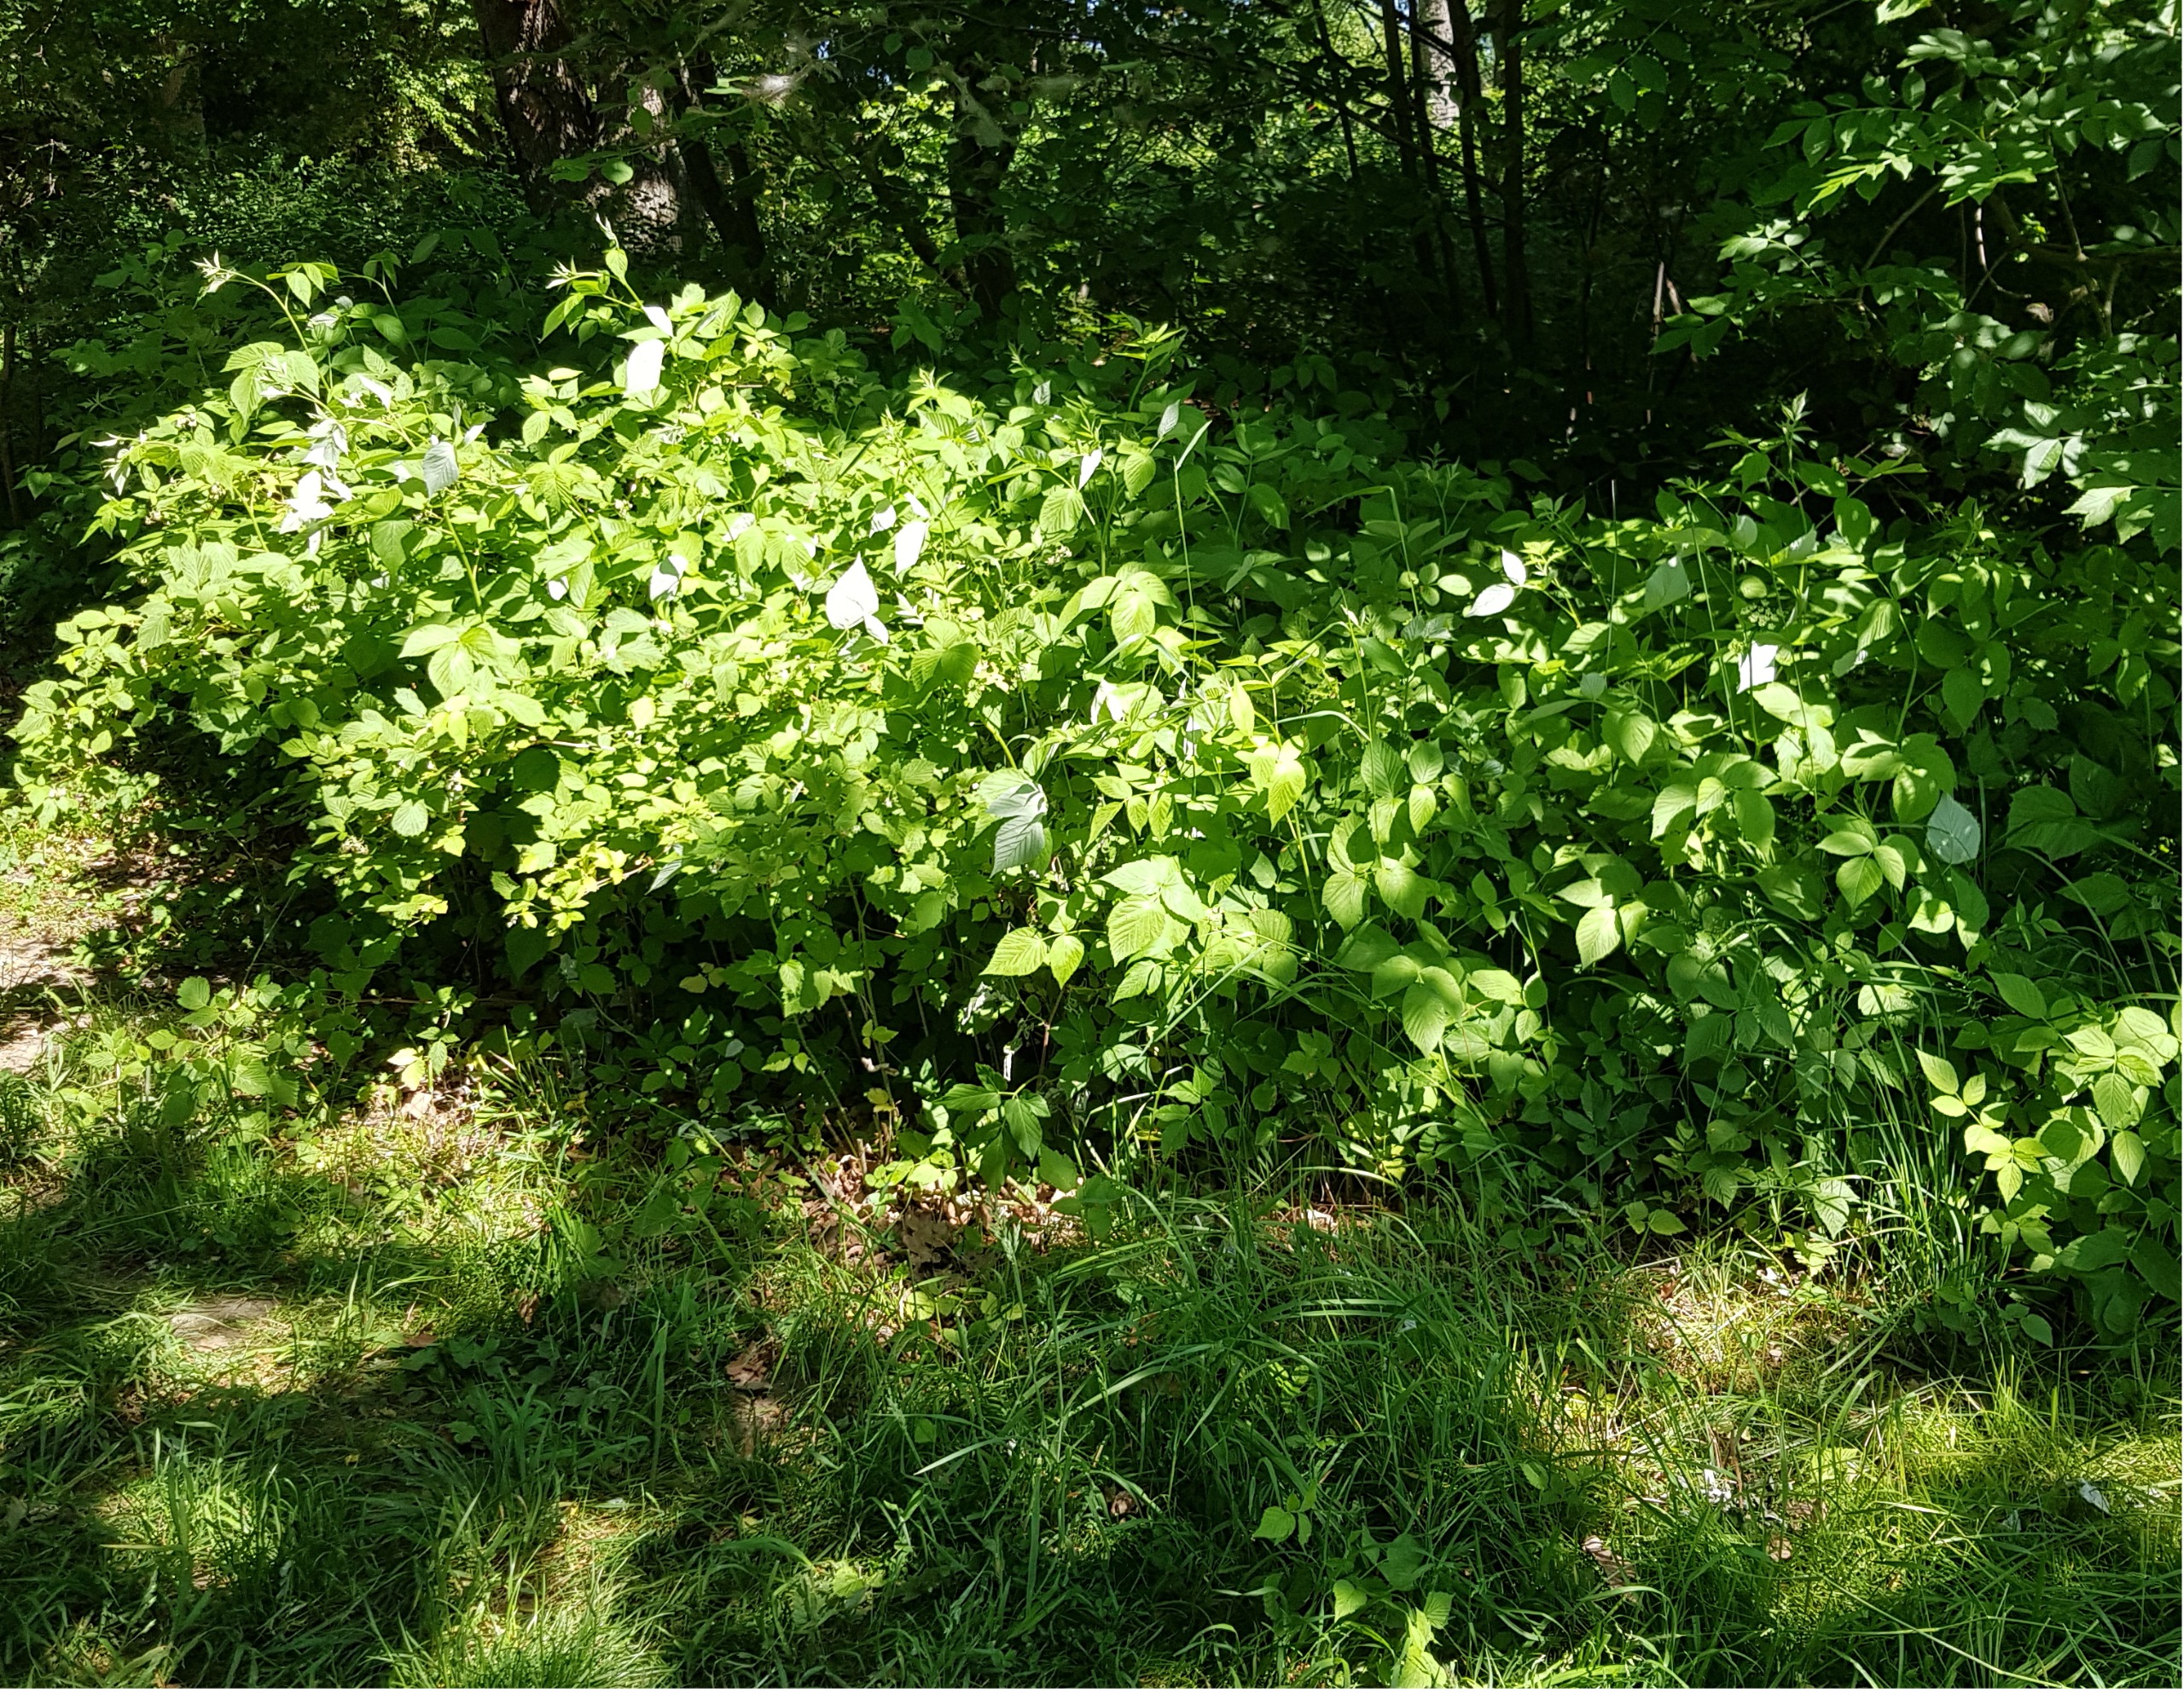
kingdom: Plantae
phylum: Tracheophyta
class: Magnoliopsida
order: Rosales
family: Rosaceae
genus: Rubus
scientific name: Rubus idaeus
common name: Hindbær
